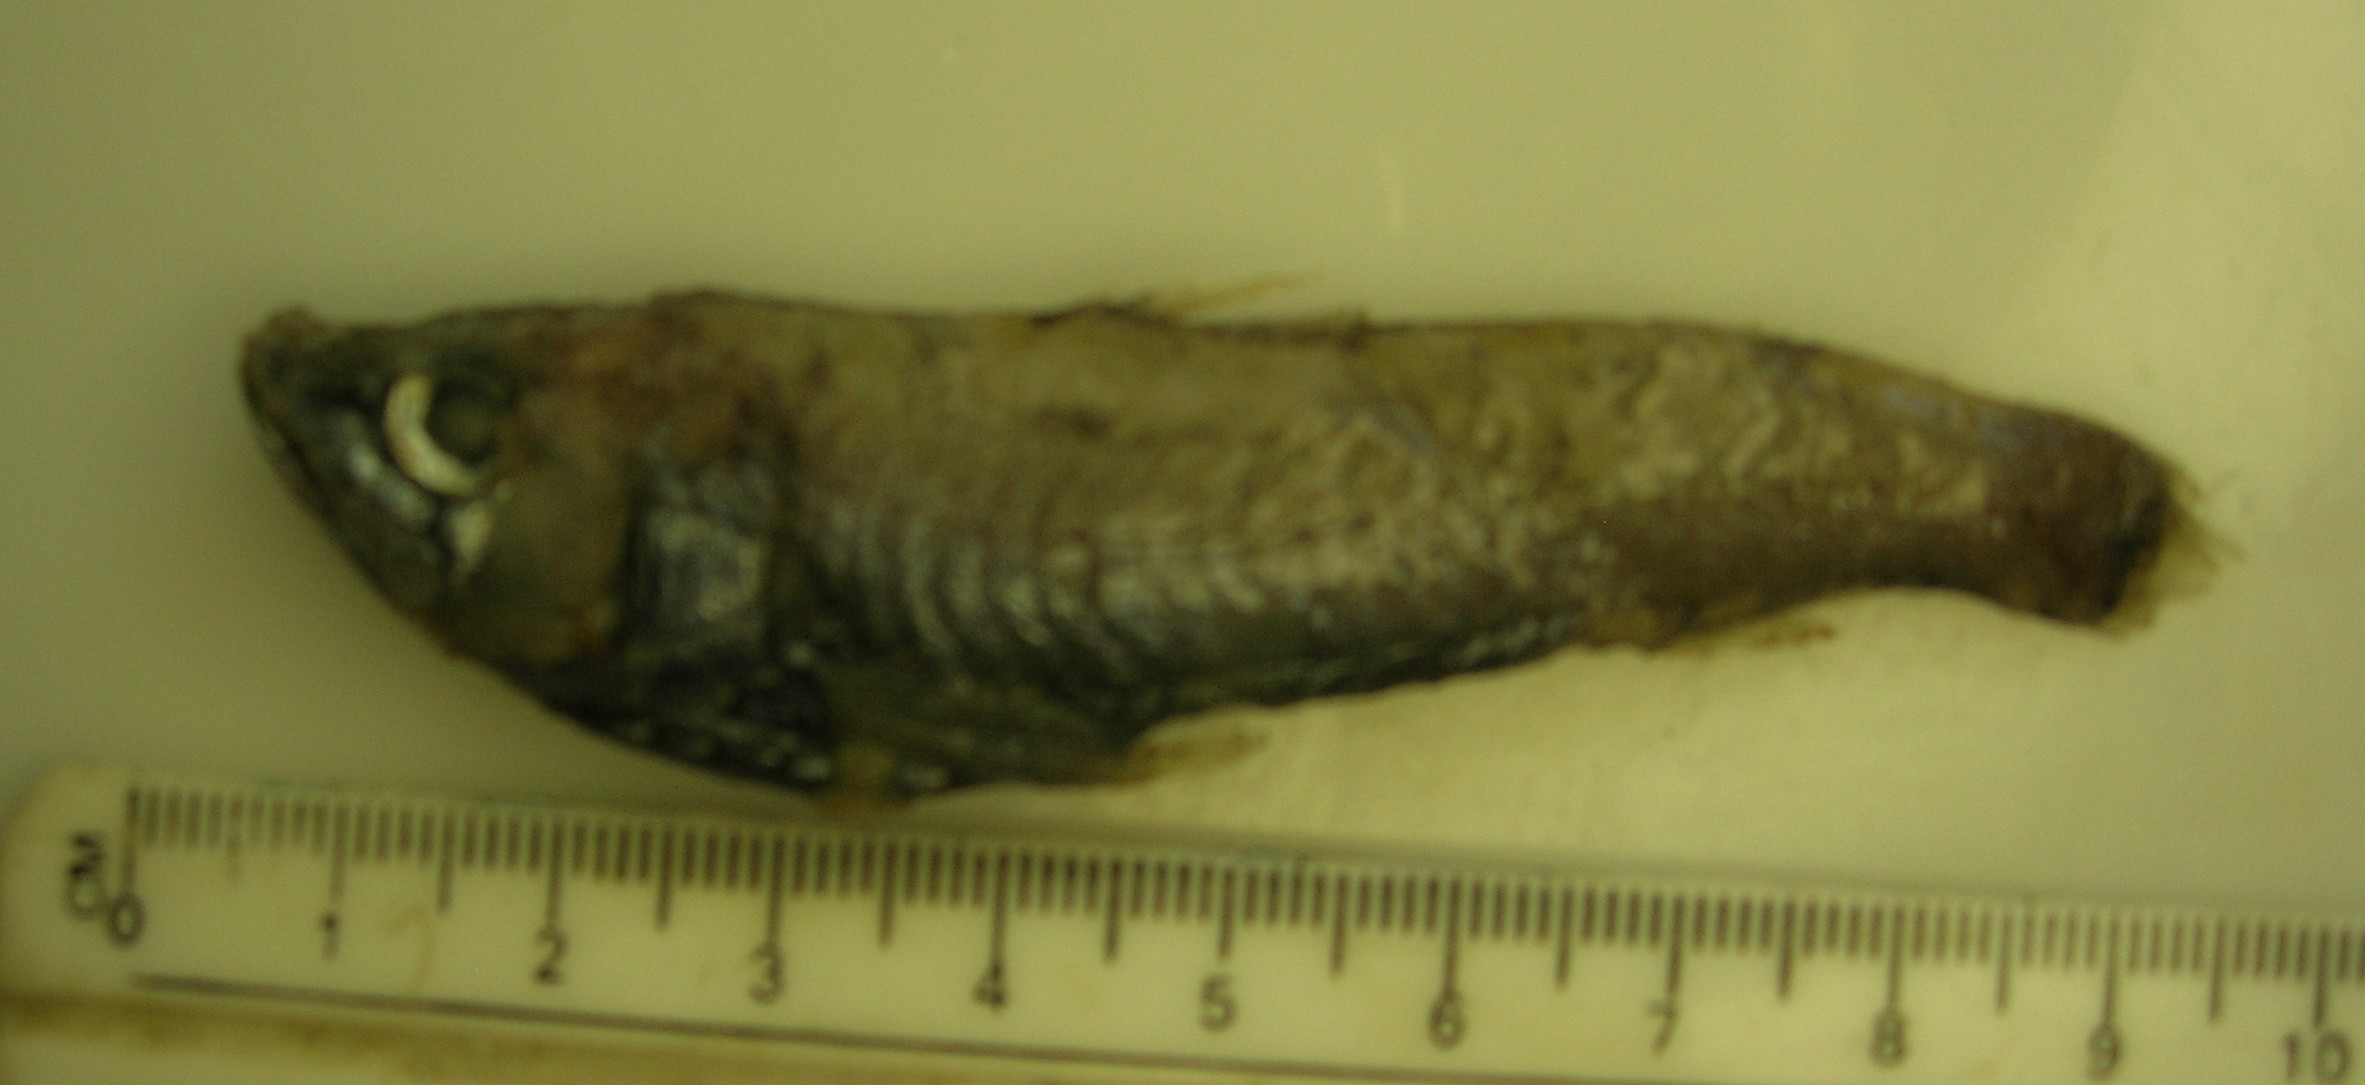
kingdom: Animalia
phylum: Chordata
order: Myctophiformes
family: Neoscopelidae
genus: Neoscopelus
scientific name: Neoscopelus microchir
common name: Shortfin neoscopelid
